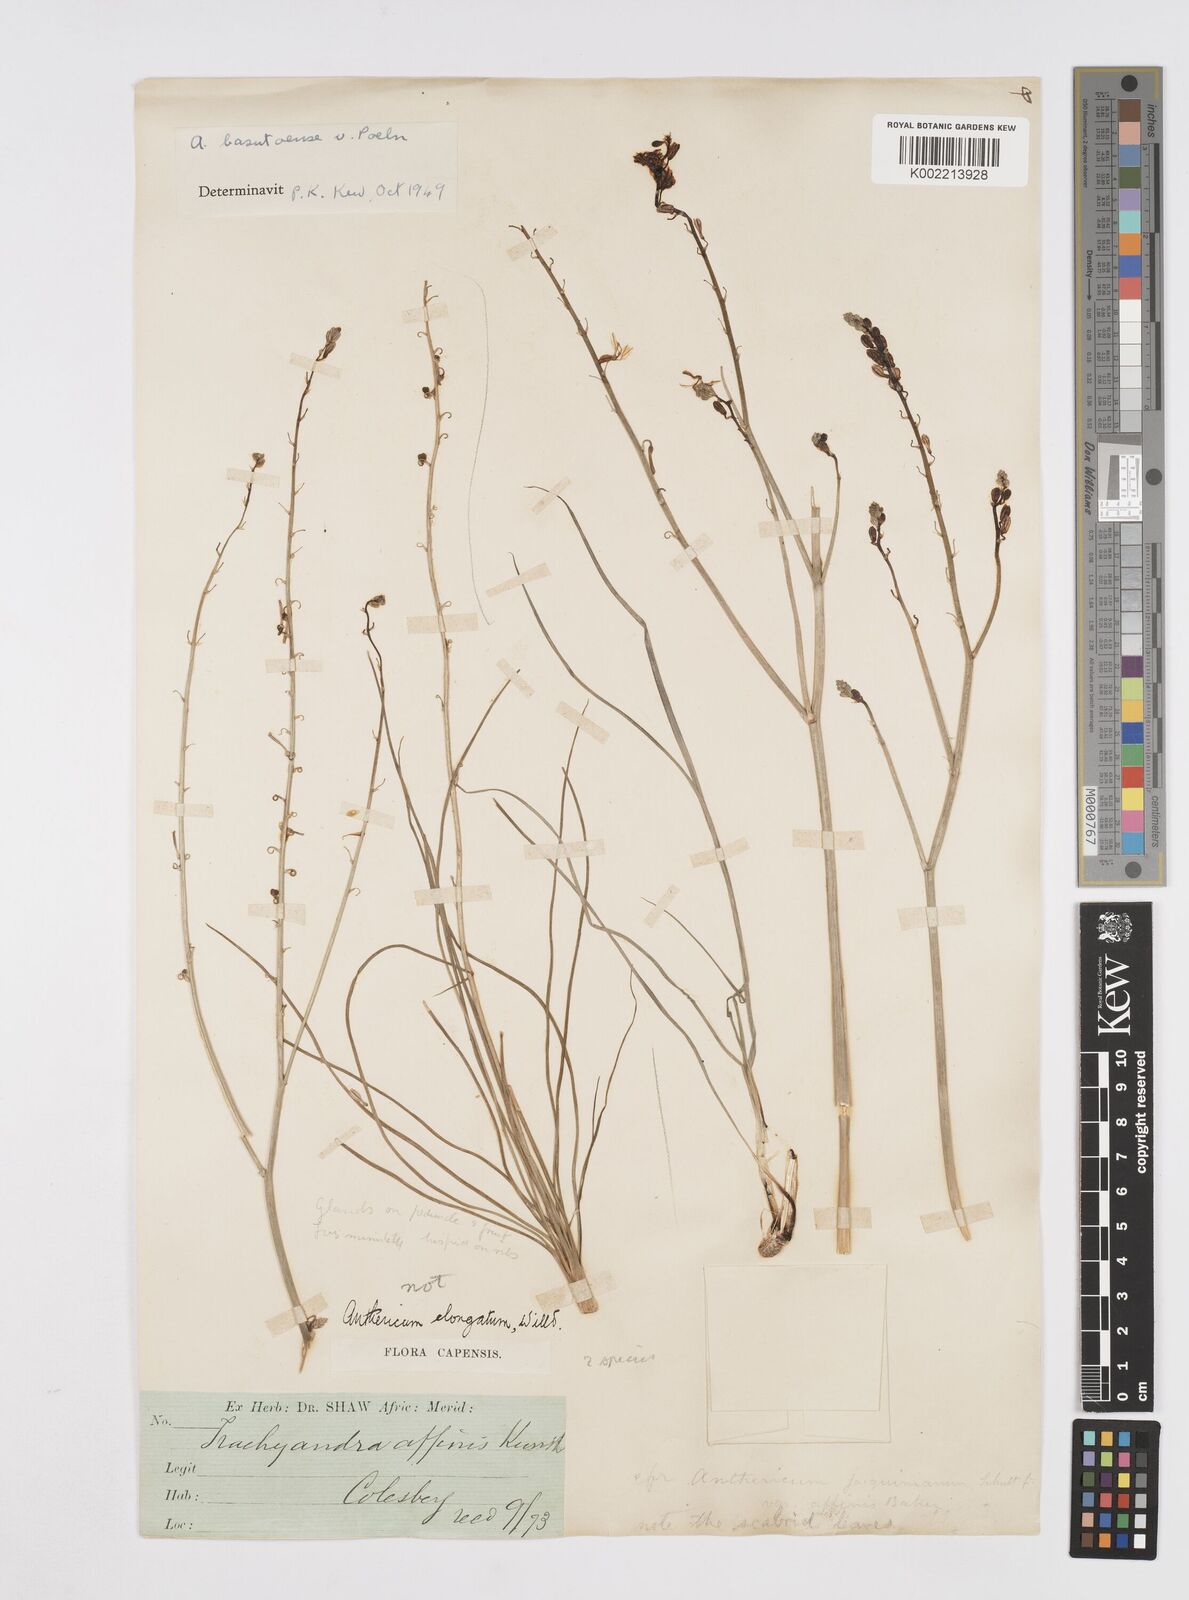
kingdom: Plantae
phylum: Tracheophyta
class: Liliopsida
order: Asparagales
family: Asphodelaceae
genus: Trachyandra
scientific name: Trachyandra asperata
